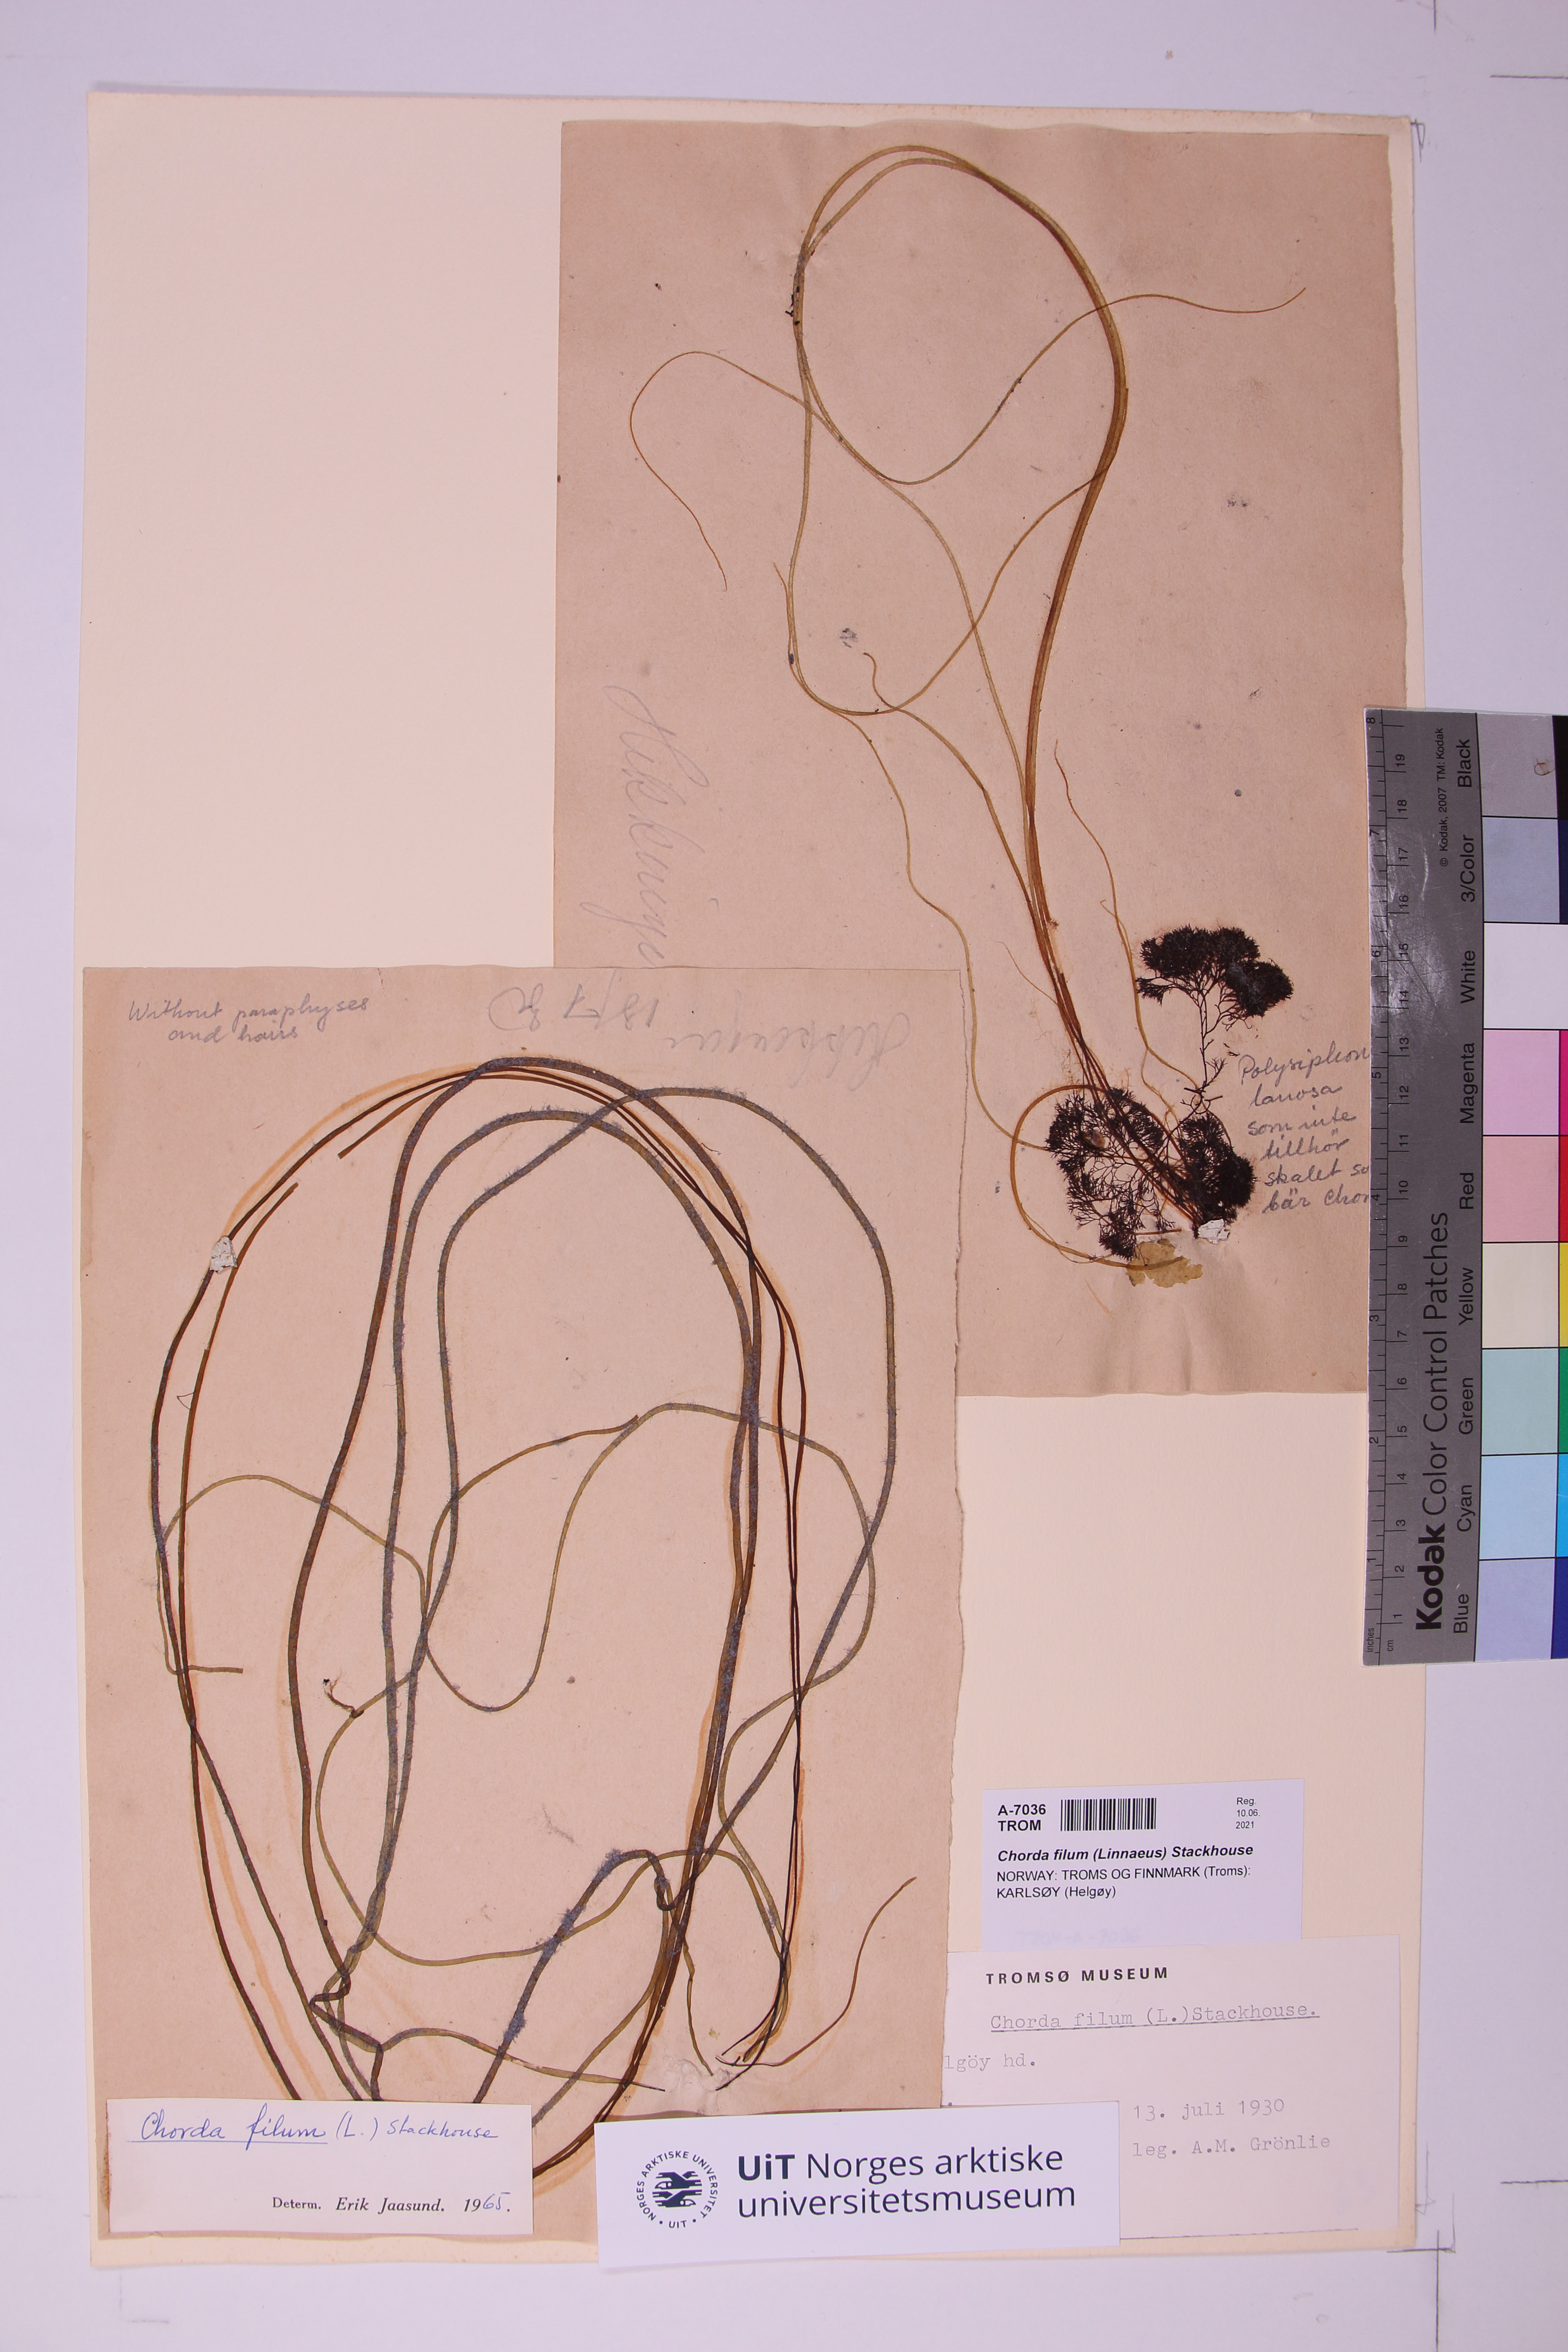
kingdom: Chromista
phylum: Ochrophyta
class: Phaeophyceae
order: Laminariales
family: Chordaceae
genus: Chorda
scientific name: Chorda filum
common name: Mermaid's tresses
